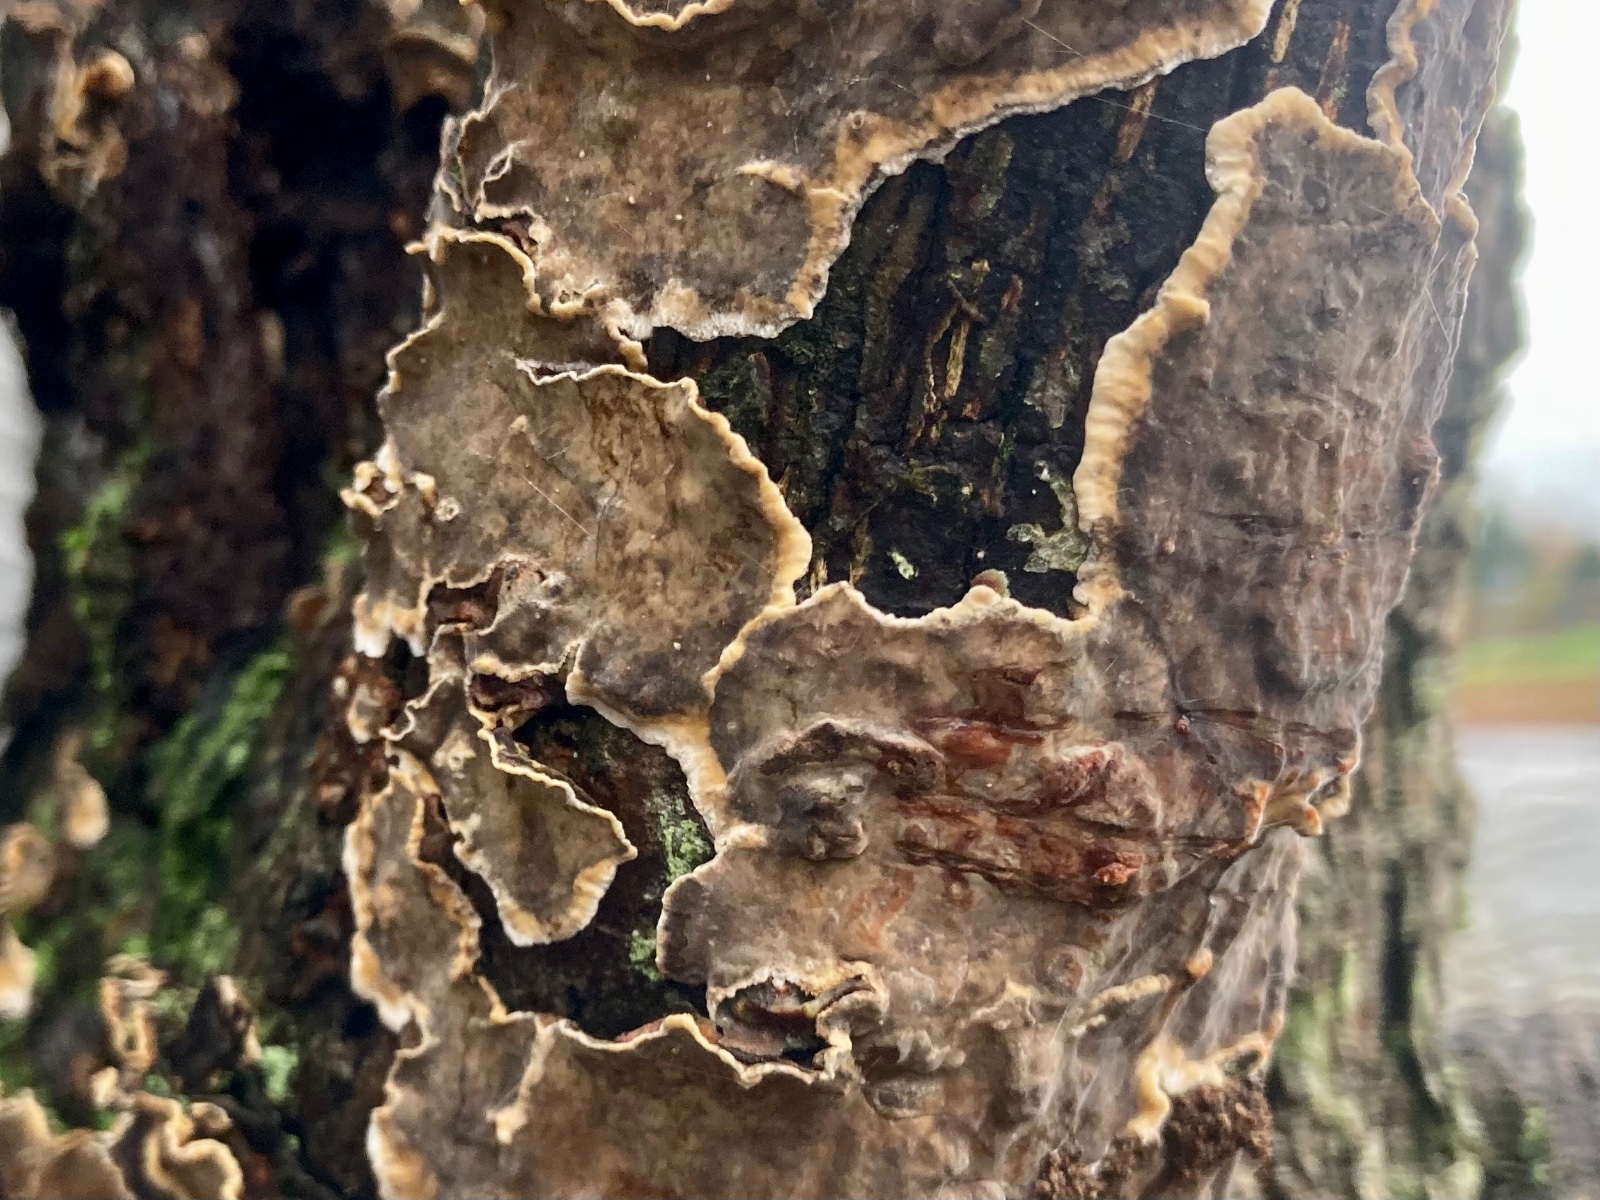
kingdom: Fungi
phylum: Basidiomycota
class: Agaricomycetes
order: Russulales
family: Stereaceae
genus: Stereum
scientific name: Stereum rugosum
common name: rynket lædersvamp
